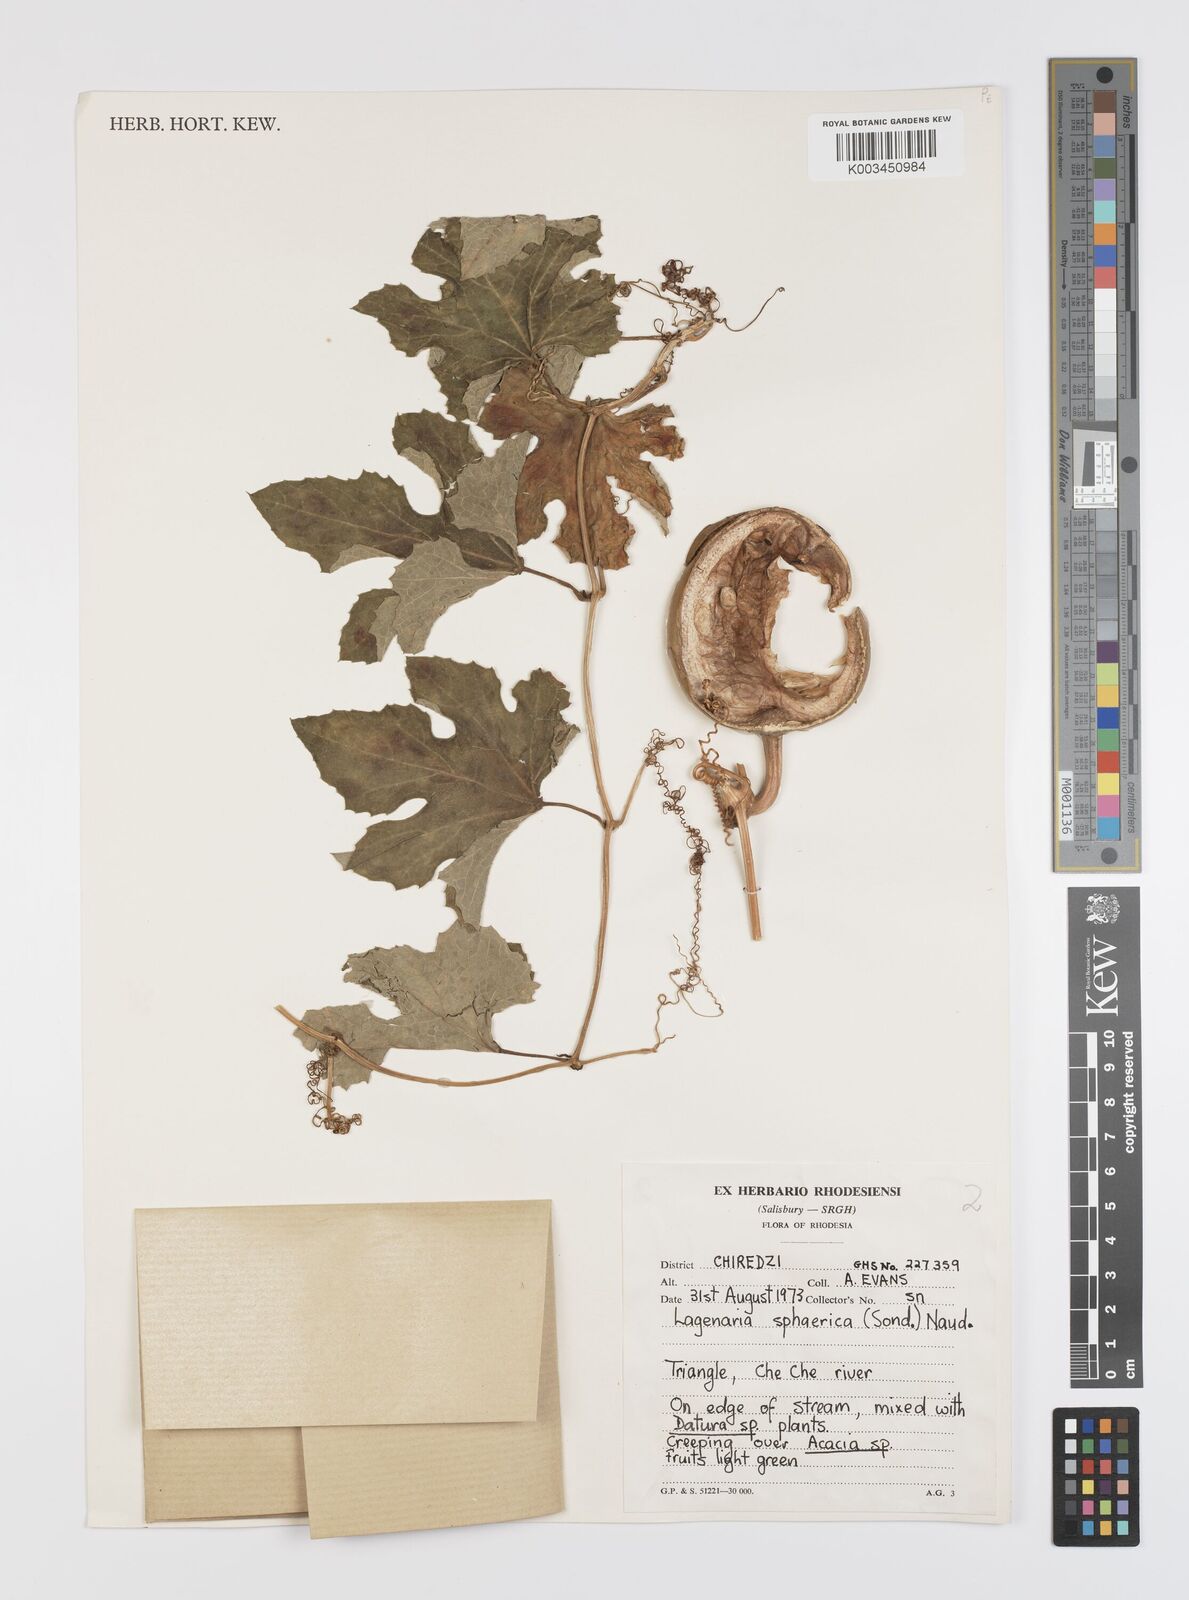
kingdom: Plantae
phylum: Tracheophyta
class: Magnoliopsida
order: Cucurbitales
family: Cucurbitaceae
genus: Lagenaria
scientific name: Lagenaria sphaerica
